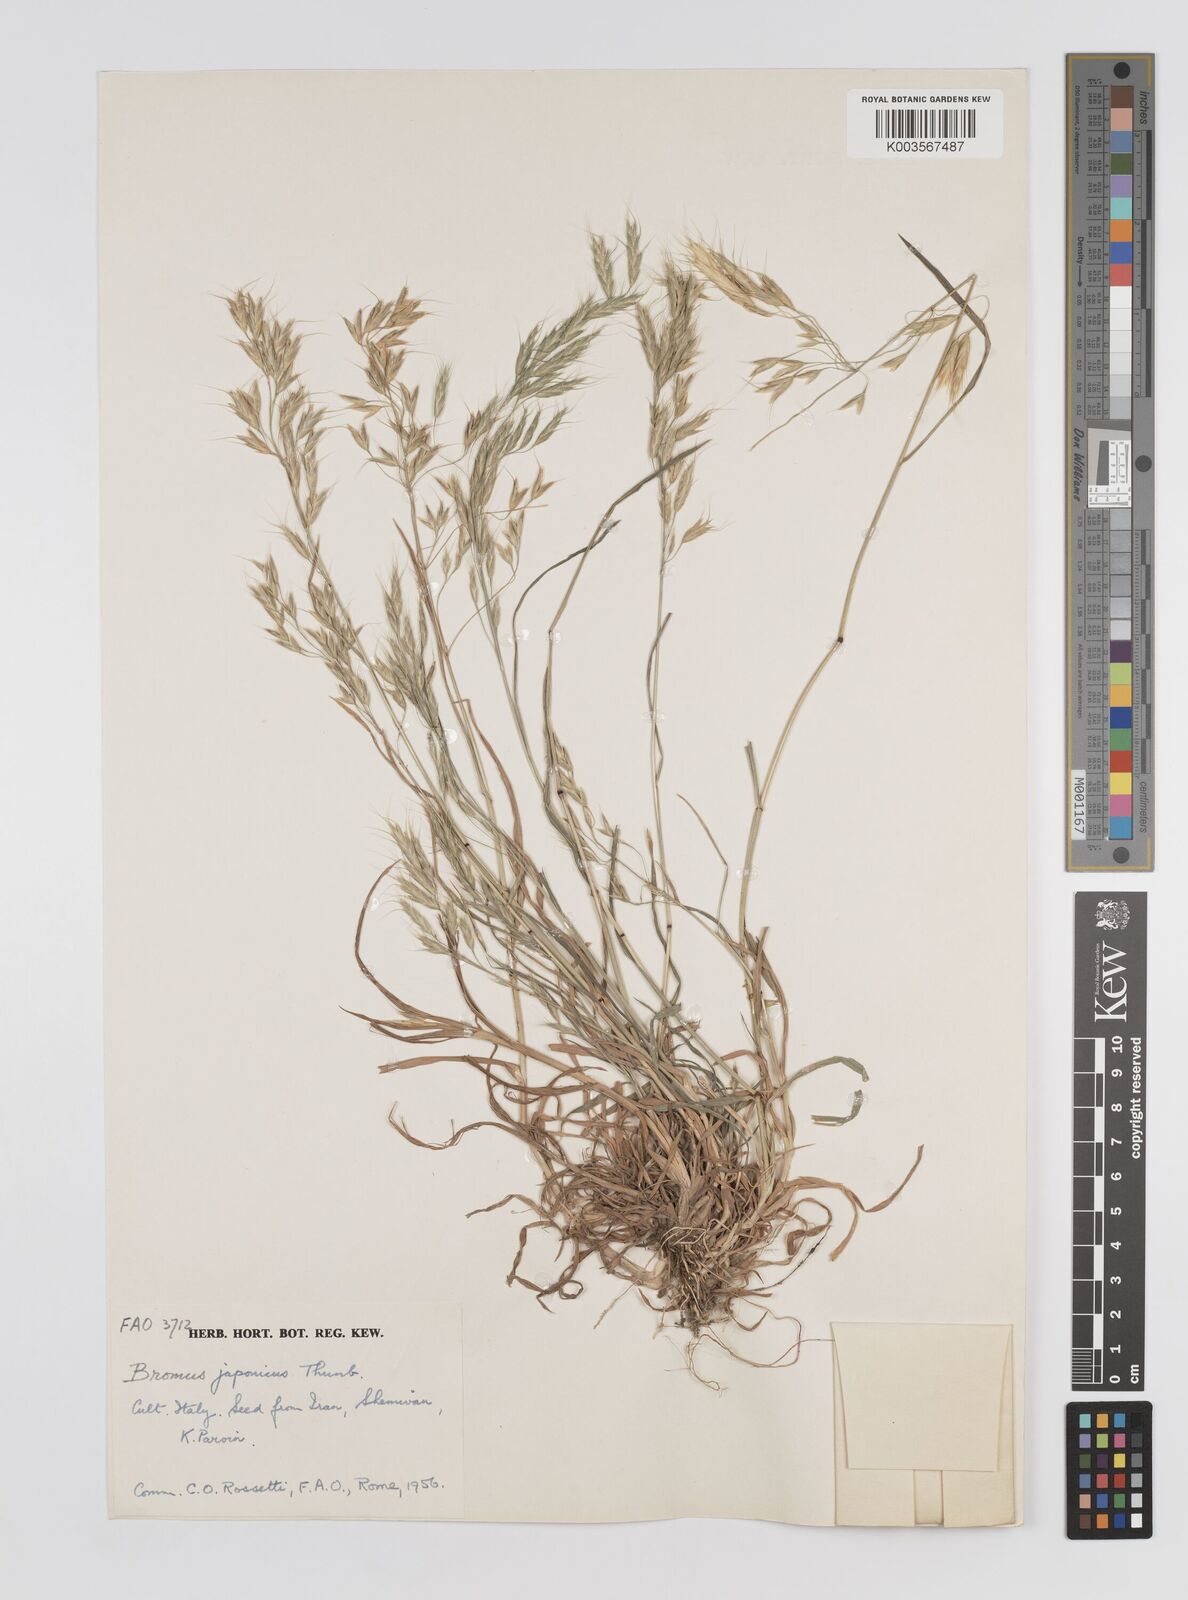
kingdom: Plantae
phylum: Tracheophyta
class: Liliopsida
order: Poales
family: Poaceae
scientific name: Poaceae
